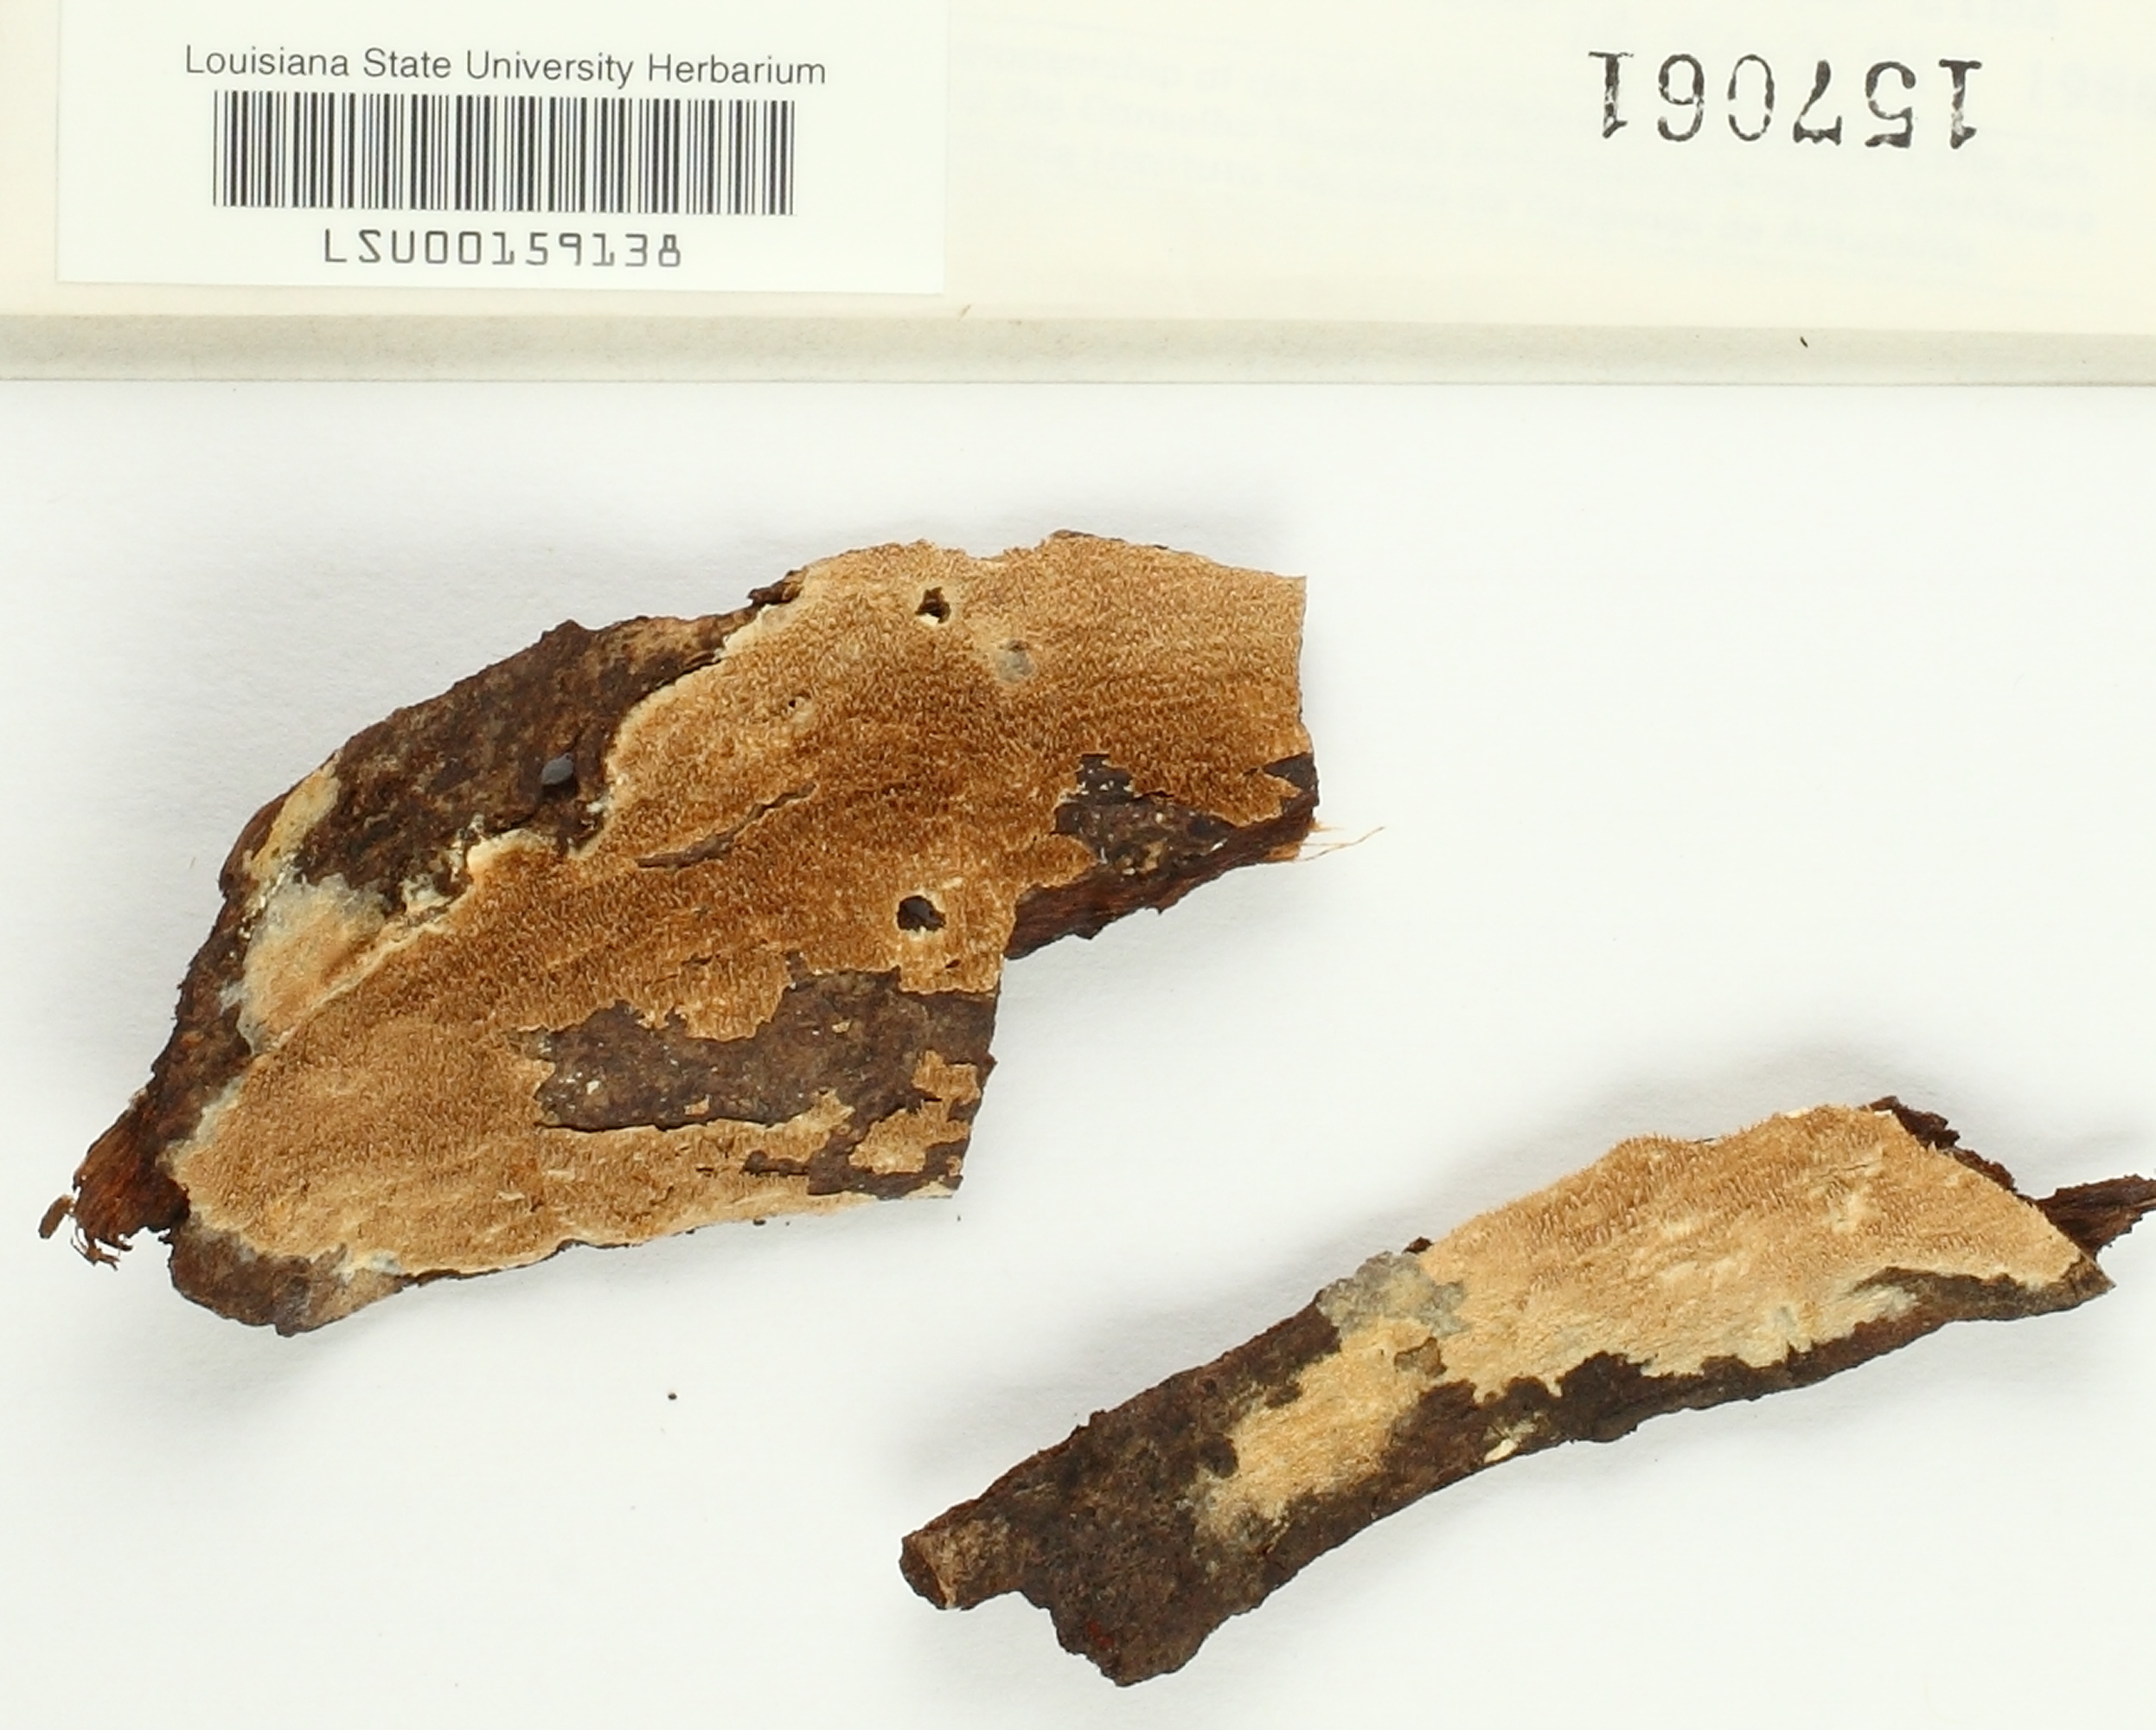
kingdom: Fungi
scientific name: Fungi
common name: Fungi
